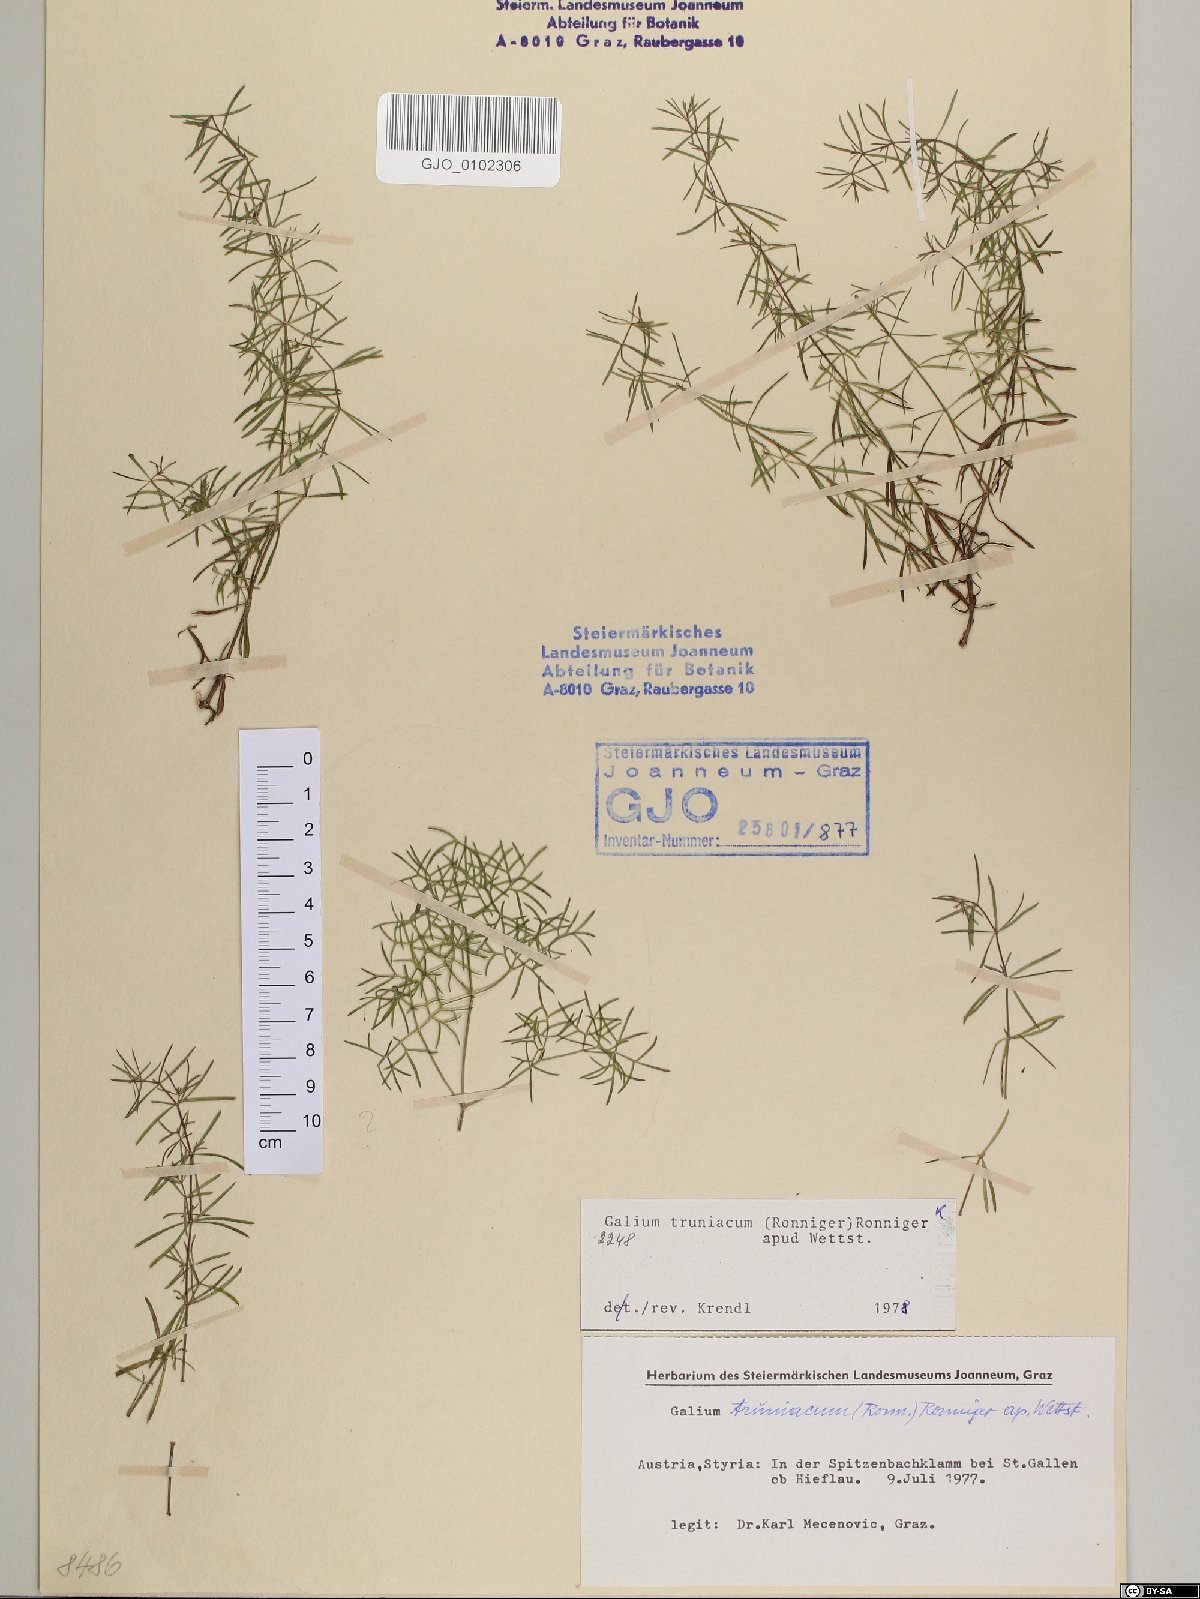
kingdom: Plantae
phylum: Tracheophyta
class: Magnoliopsida
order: Gentianales
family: Rubiaceae
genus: Galium
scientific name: Galium truniacum
